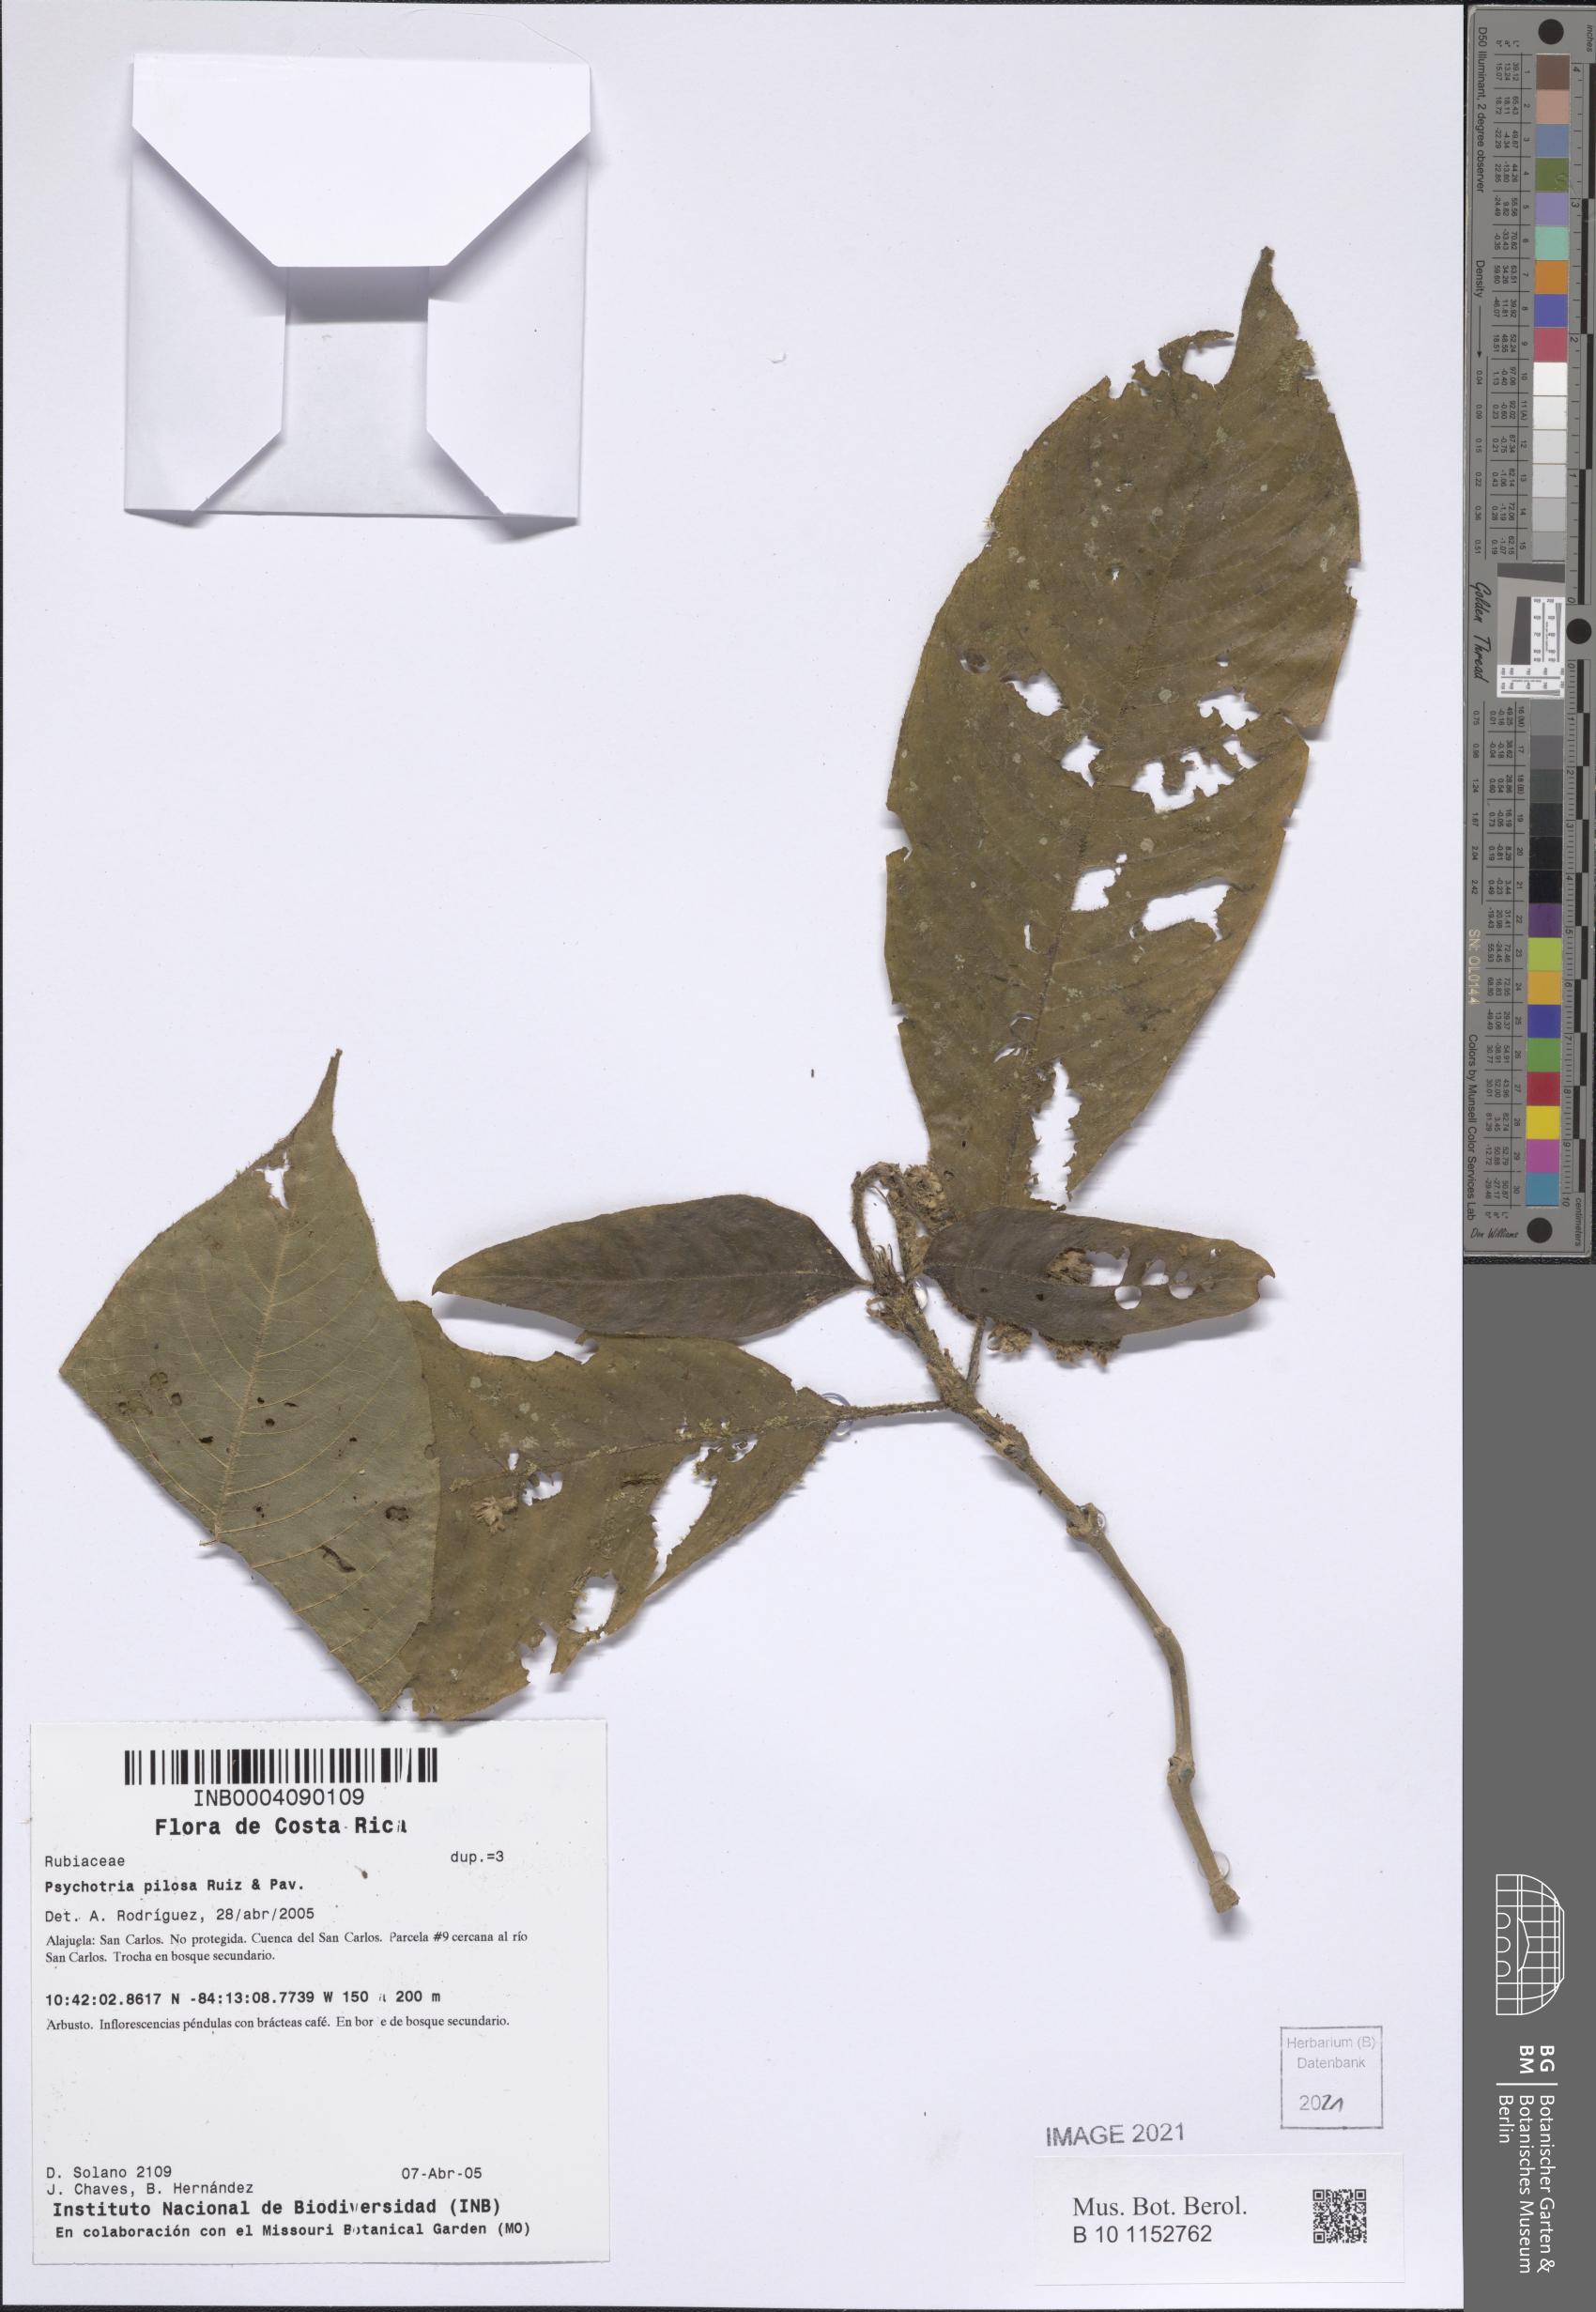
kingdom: Plantae
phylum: Tracheophyta
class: Magnoliopsida
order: Gentianales
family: Rubiaceae
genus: Palicourea
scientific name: Palicourea pilosa
